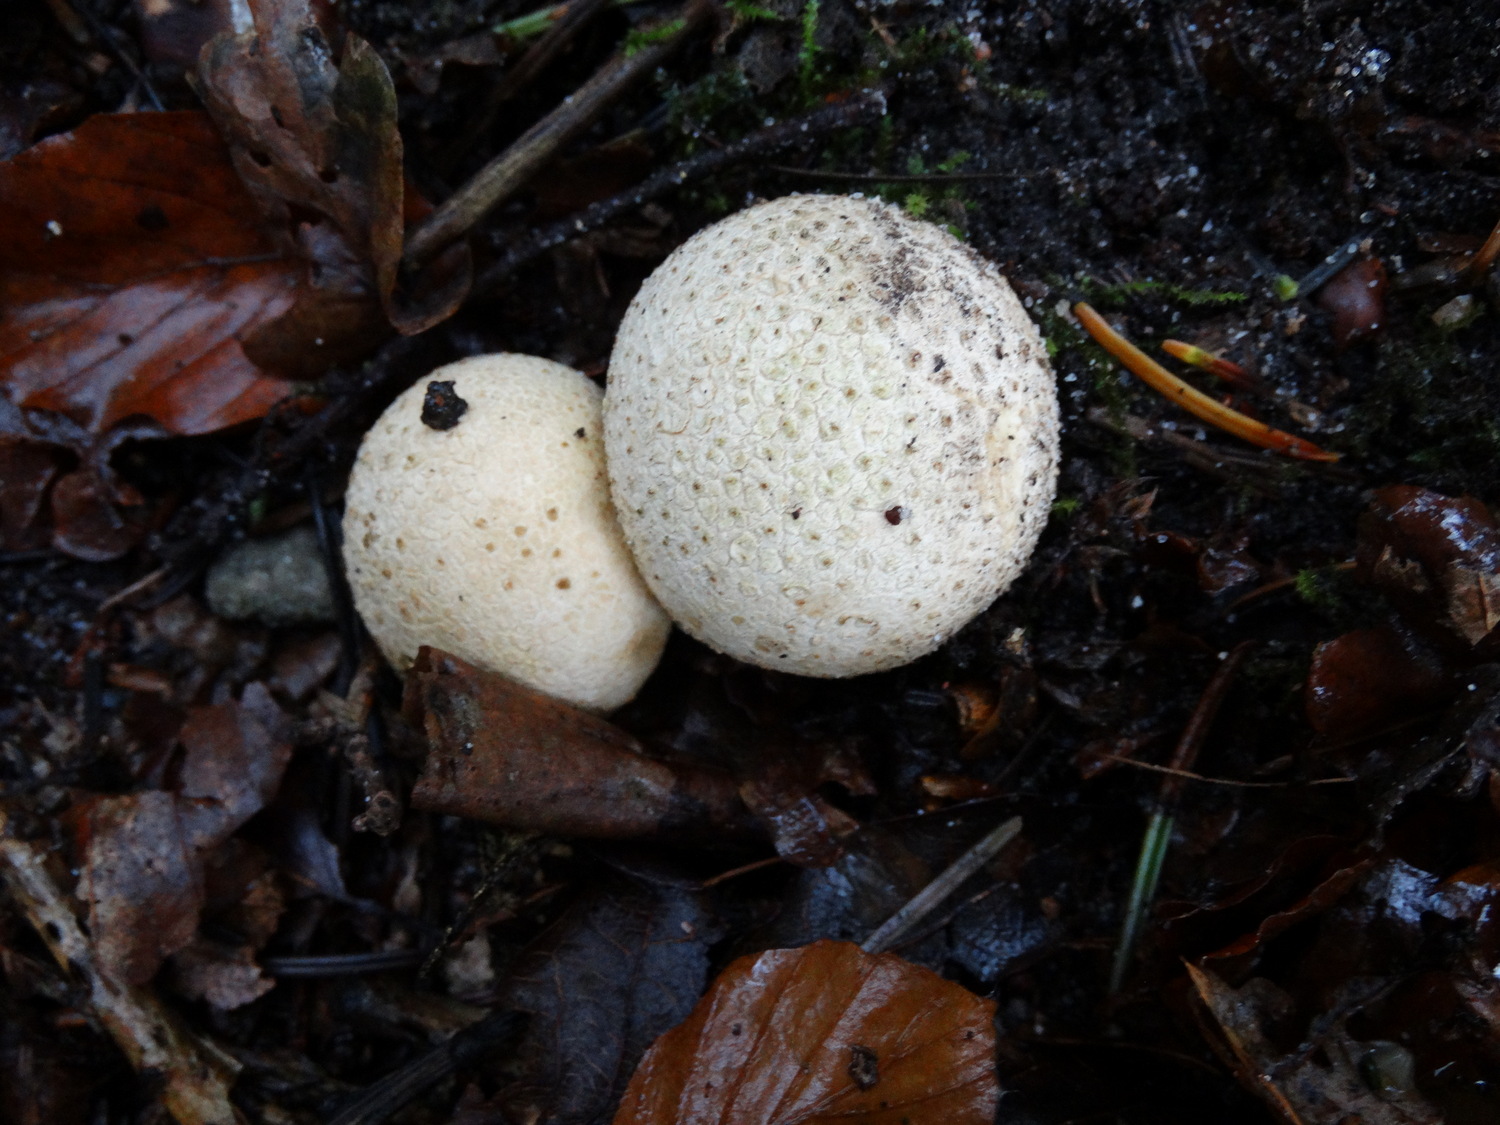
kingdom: Fungi
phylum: Basidiomycota
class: Agaricomycetes
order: Boletales
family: Sclerodermataceae
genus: Scleroderma
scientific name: Scleroderma citrinum
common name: almindelig bruskbold
